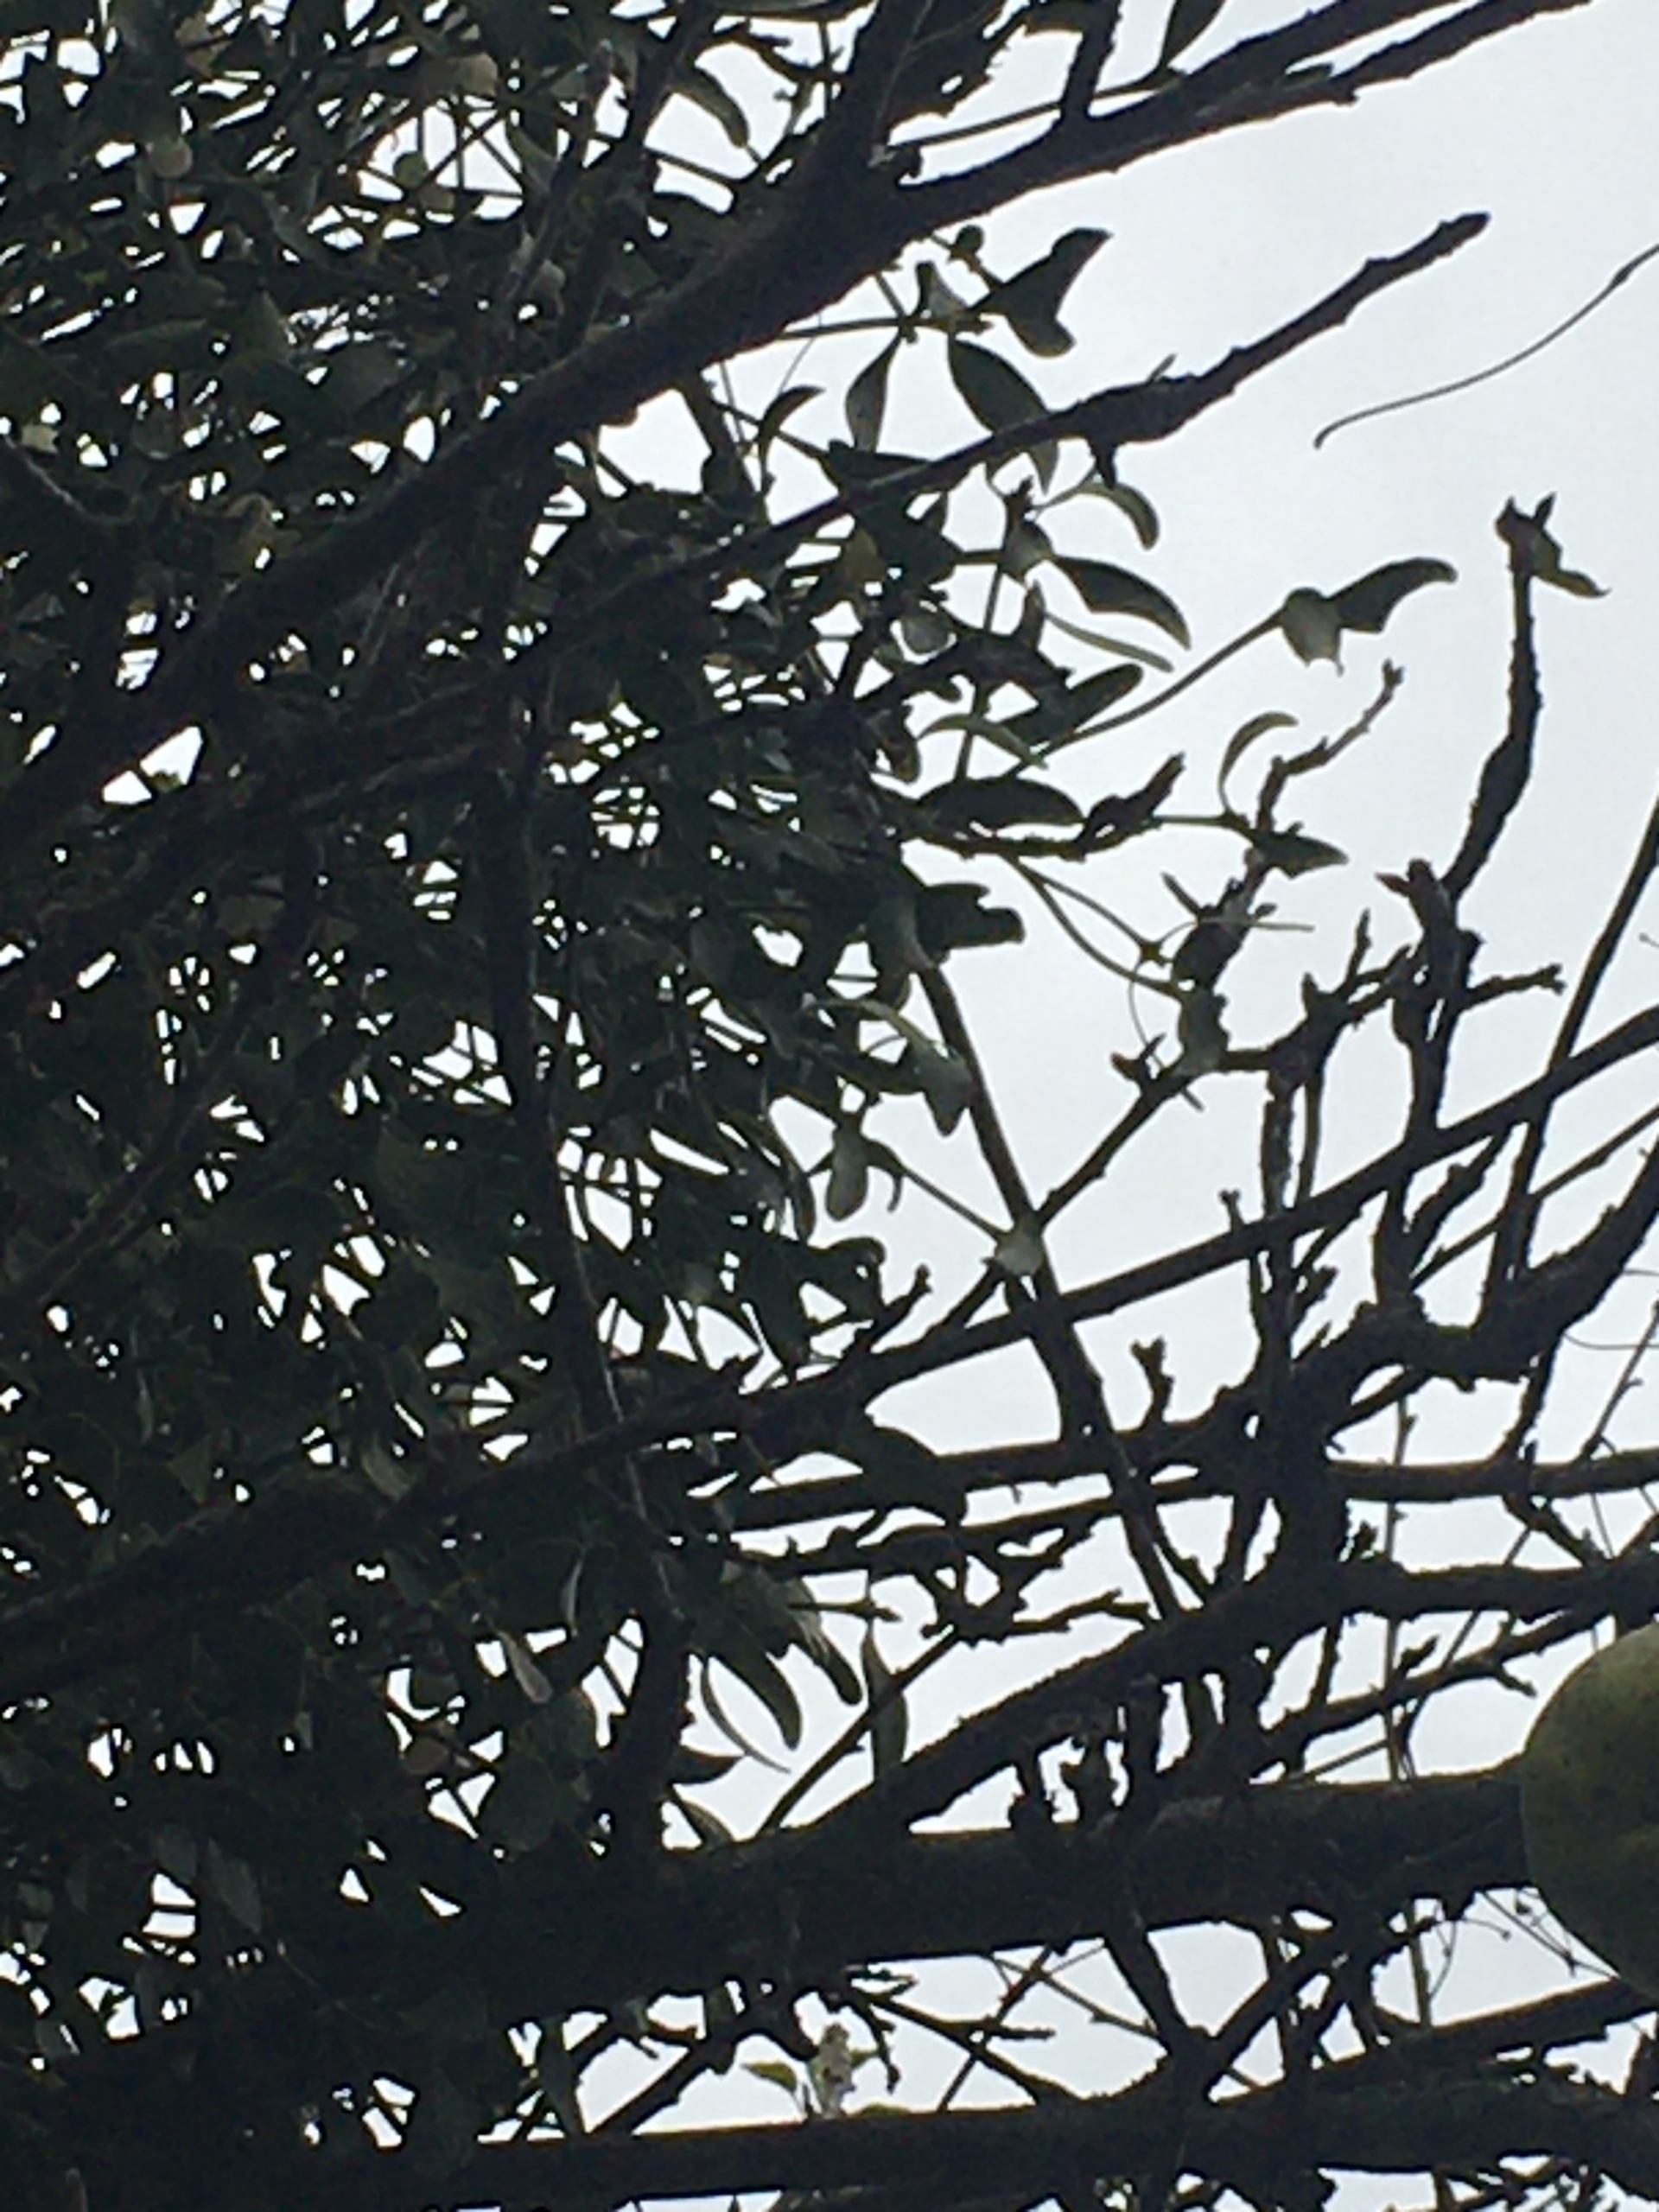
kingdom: Plantae
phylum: Tracheophyta
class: Magnoliopsida
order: Santalales
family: Viscaceae
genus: Viscum
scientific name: Viscum album
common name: Mistelten
